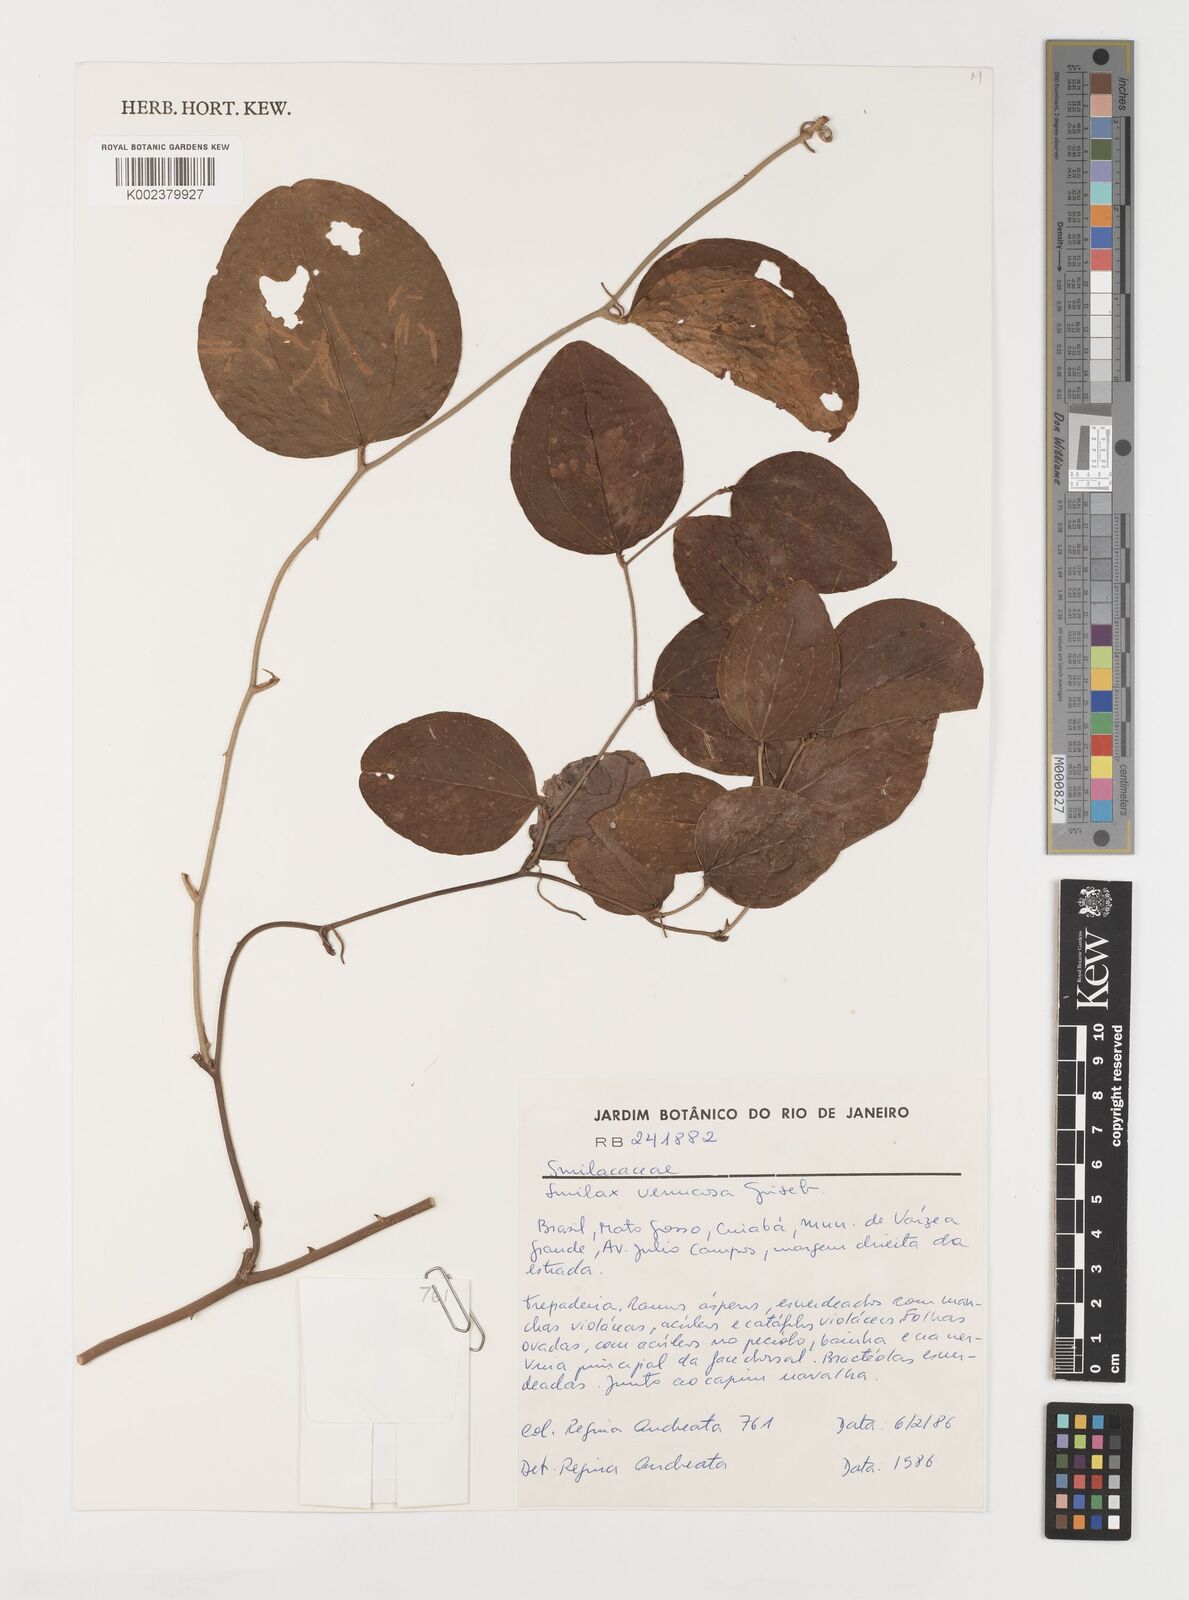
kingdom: Plantae
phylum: Tracheophyta
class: Liliopsida
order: Liliales
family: Smilacaceae
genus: Smilax
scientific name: Smilax verrucosa
